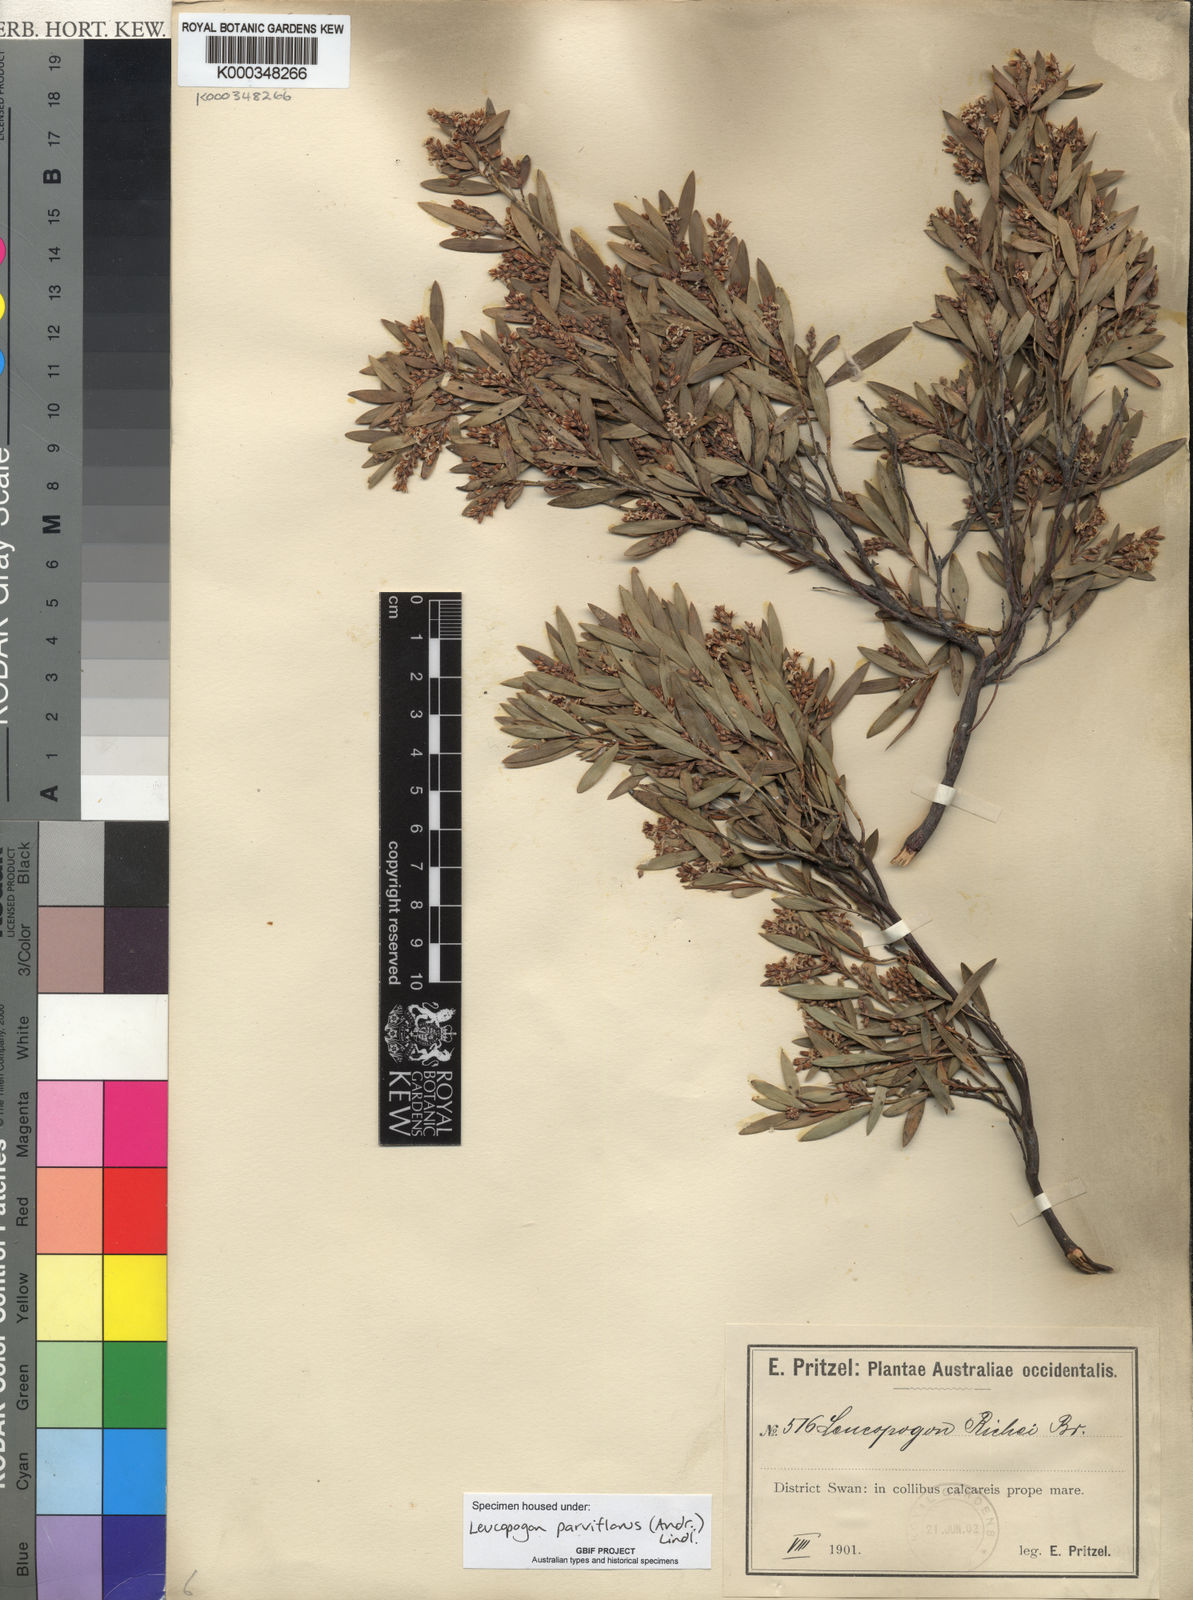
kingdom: Plantae
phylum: Tracheophyta
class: Magnoliopsida
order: Ericales
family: Ericaceae
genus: Leptecophylla
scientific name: Leptecophylla parvifolia
